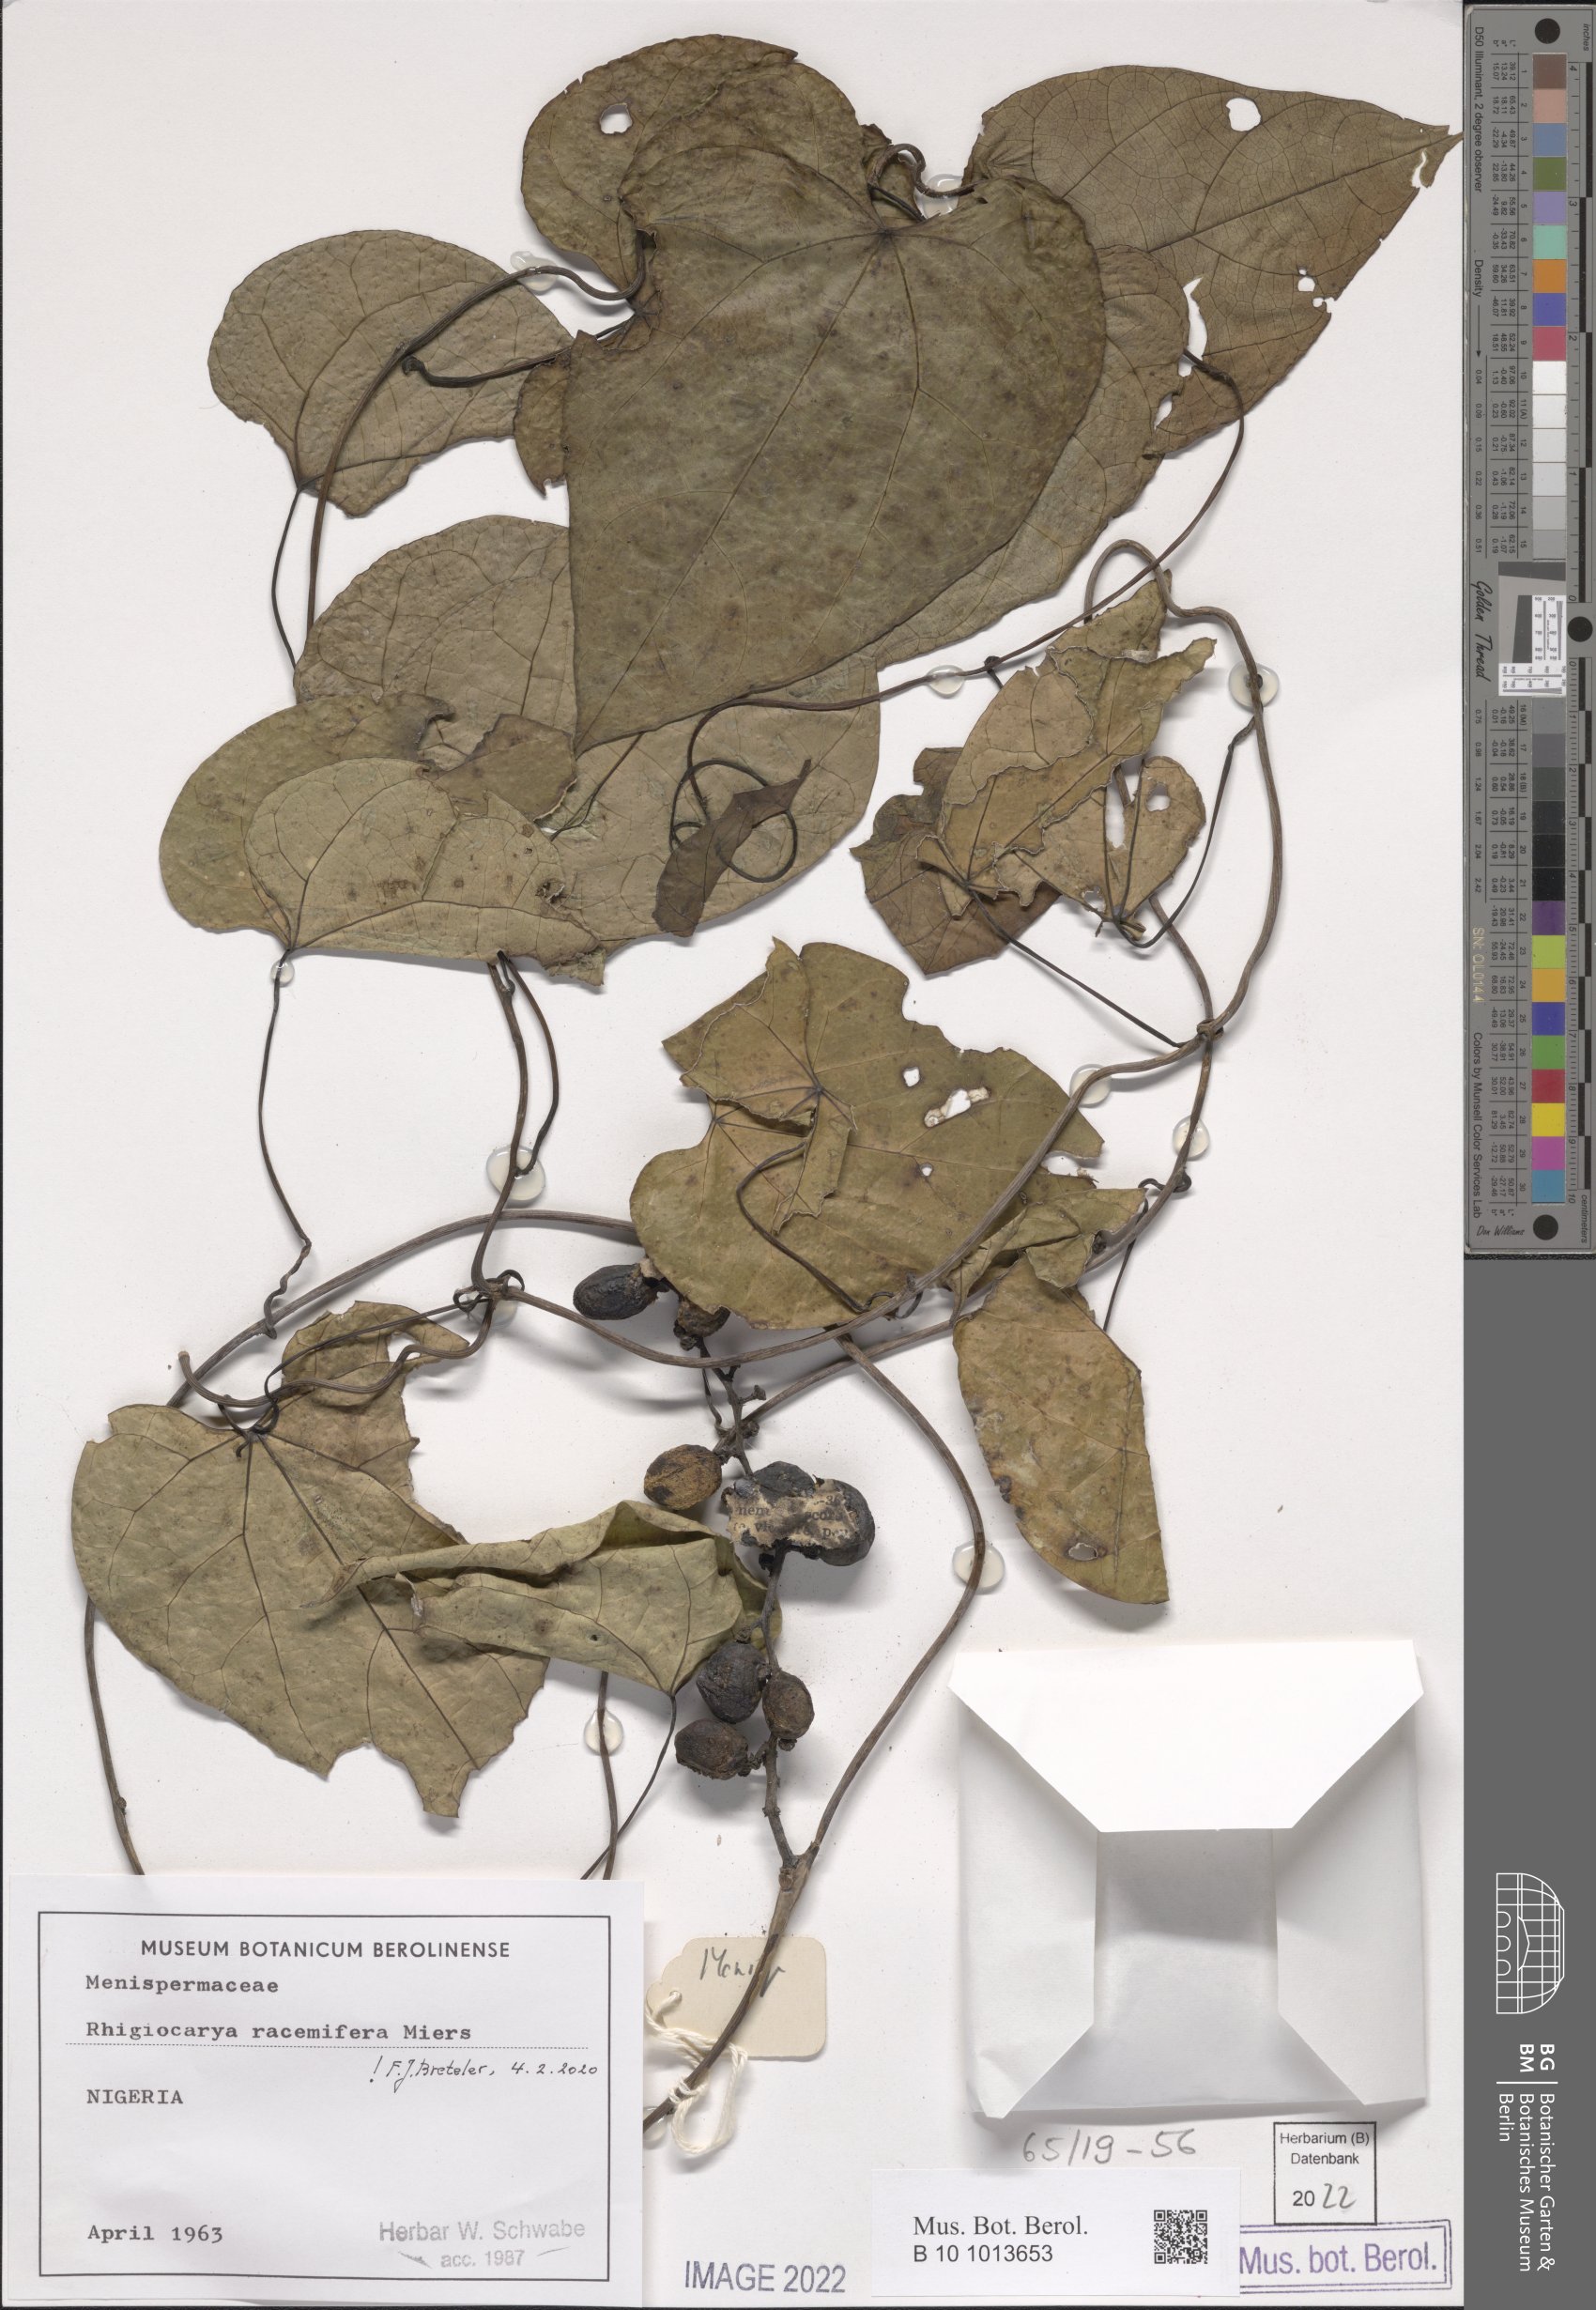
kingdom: Plantae
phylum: Tracheophyta
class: Magnoliopsida
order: Ranunculales
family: Menispermaceae
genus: Rhigiocarya
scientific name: Rhigiocarya racemifera
